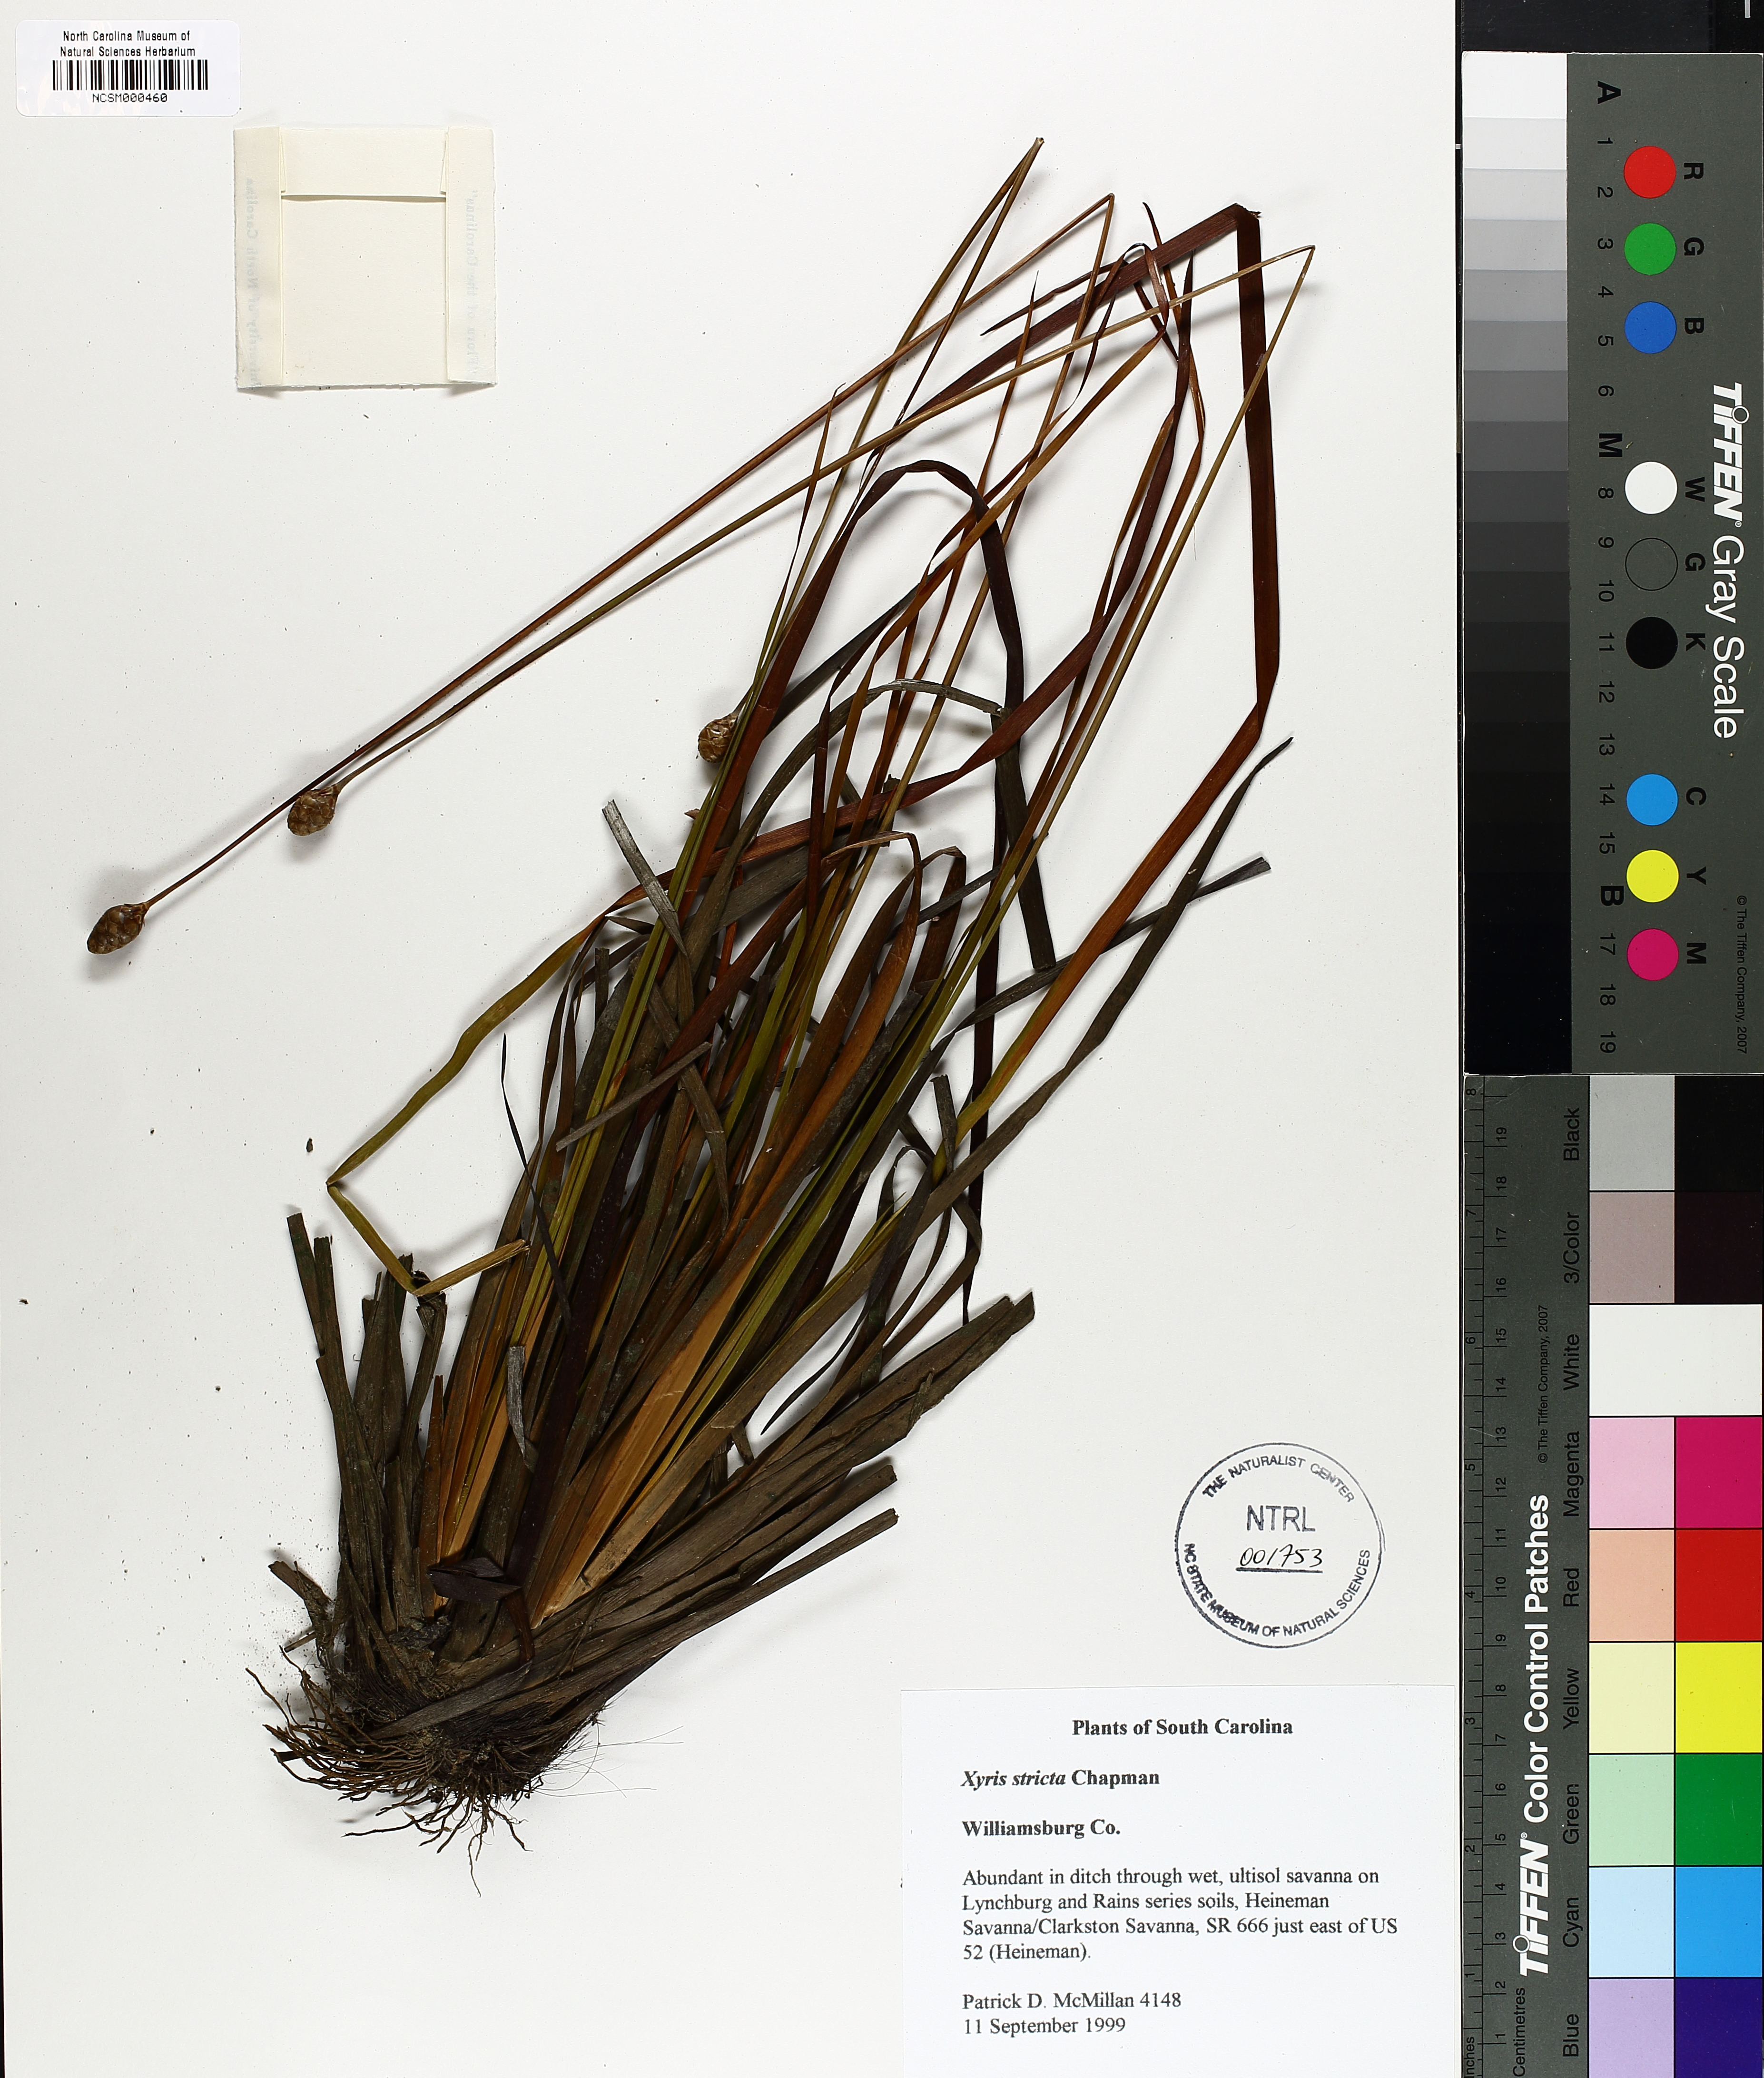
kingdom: Plantae
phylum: Tracheophyta
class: Liliopsida
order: Poales
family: Xyridaceae
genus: Xyris
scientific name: Xyris stricta
